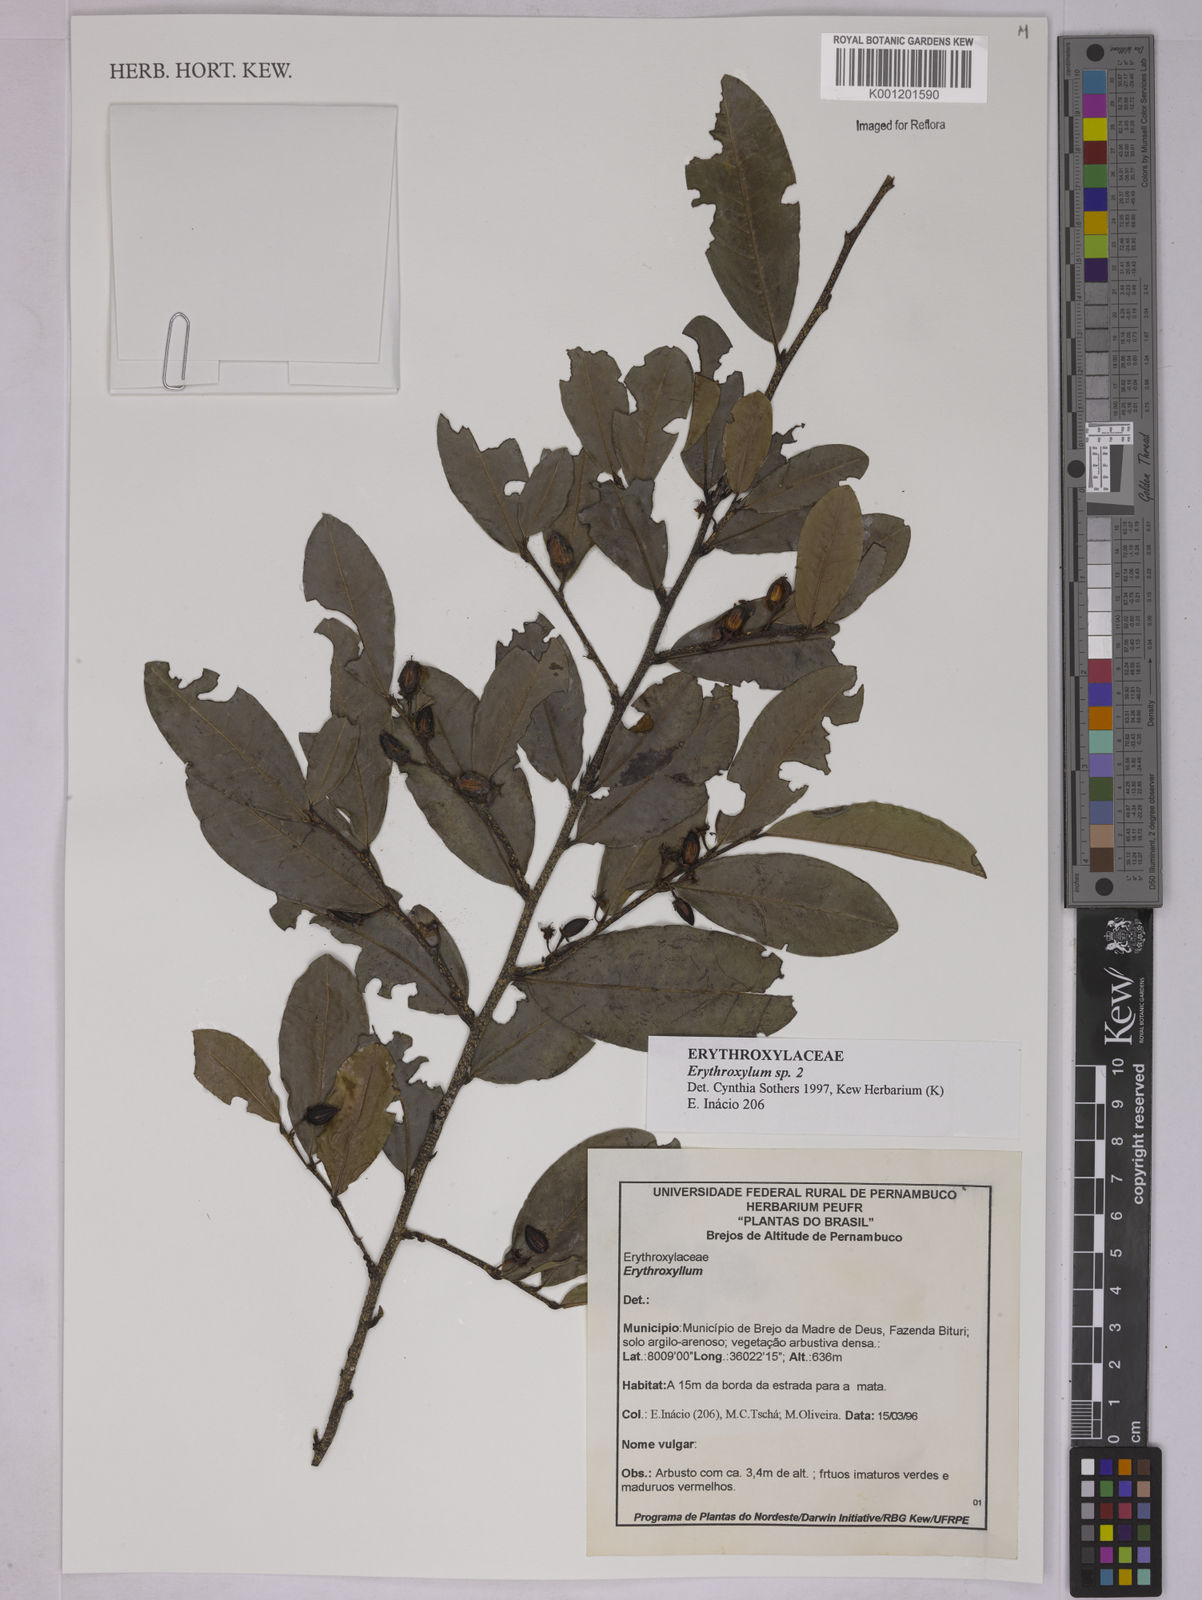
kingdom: Plantae
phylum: Tracheophyta
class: Magnoliopsida
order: Malpighiales
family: Erythroxylaceae
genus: Erythroxylum
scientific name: Erythroxylum
